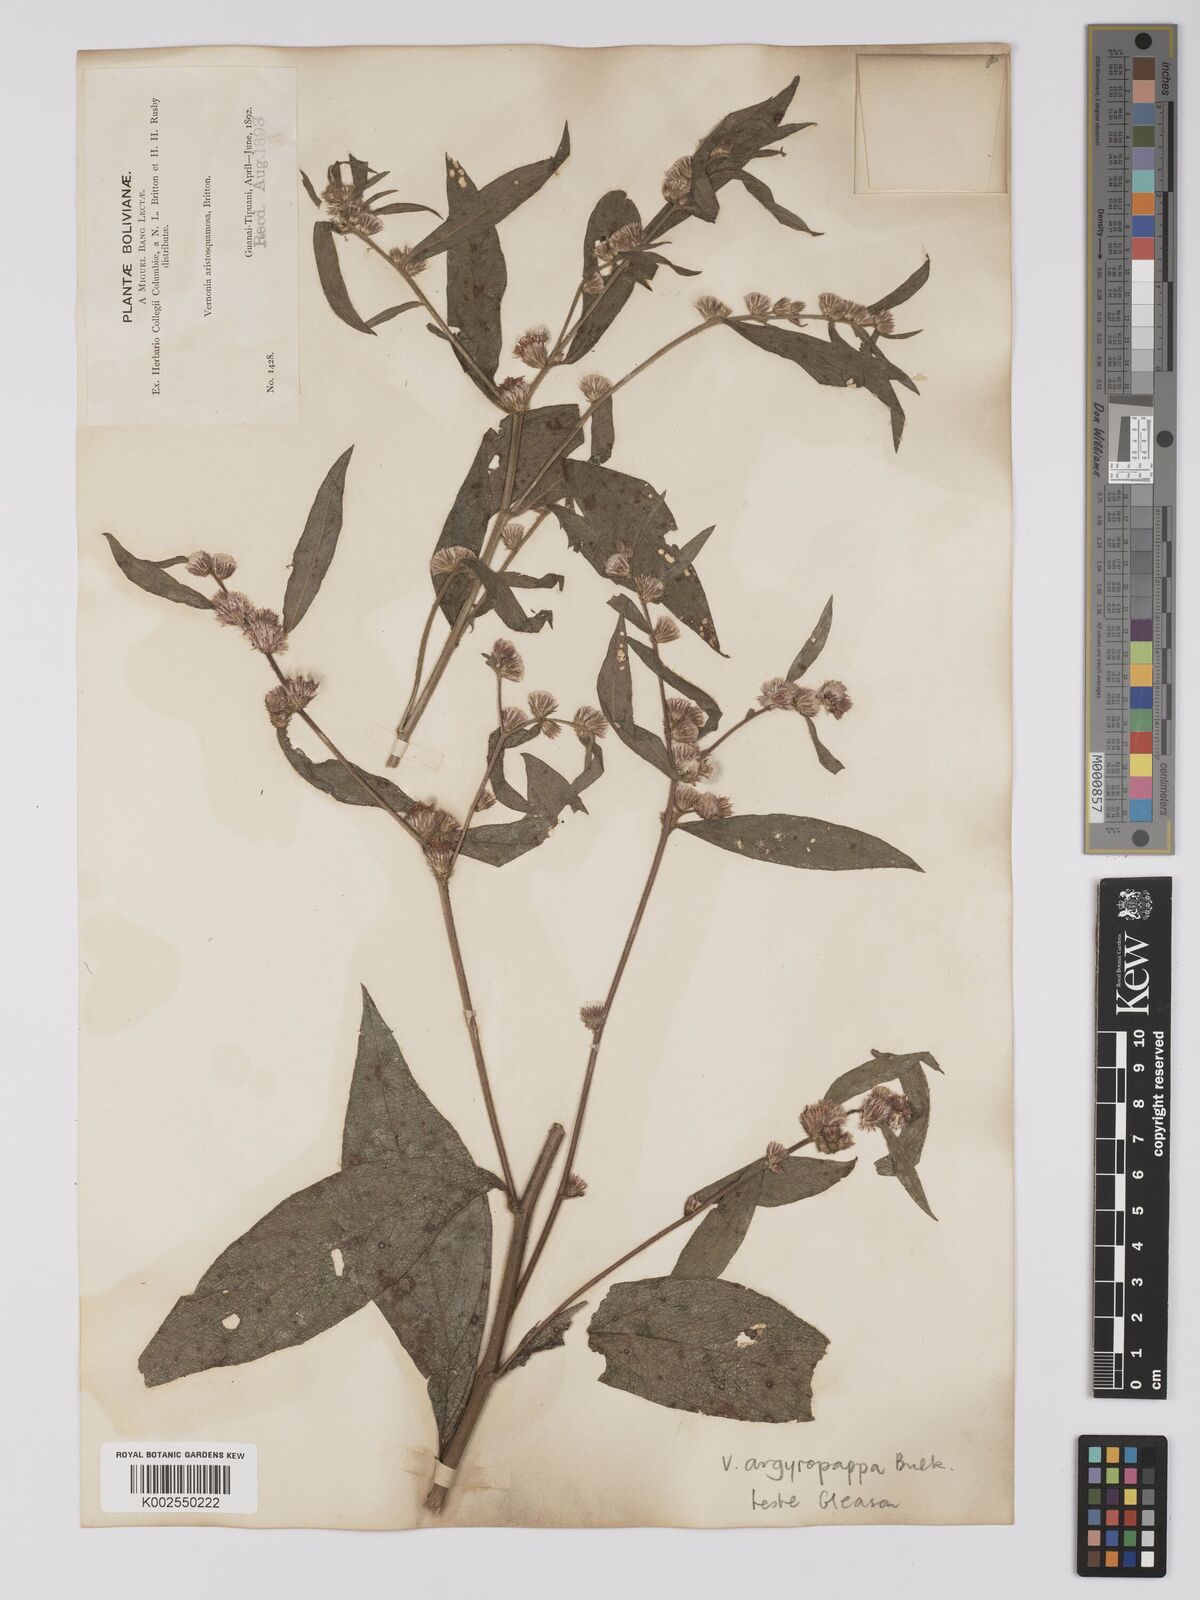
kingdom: Plantae
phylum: Tracheophyta
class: Magnoliopsida
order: Asterales
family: Asteraceae
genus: Lepidaploa
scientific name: Lepidaploa argyropappa
